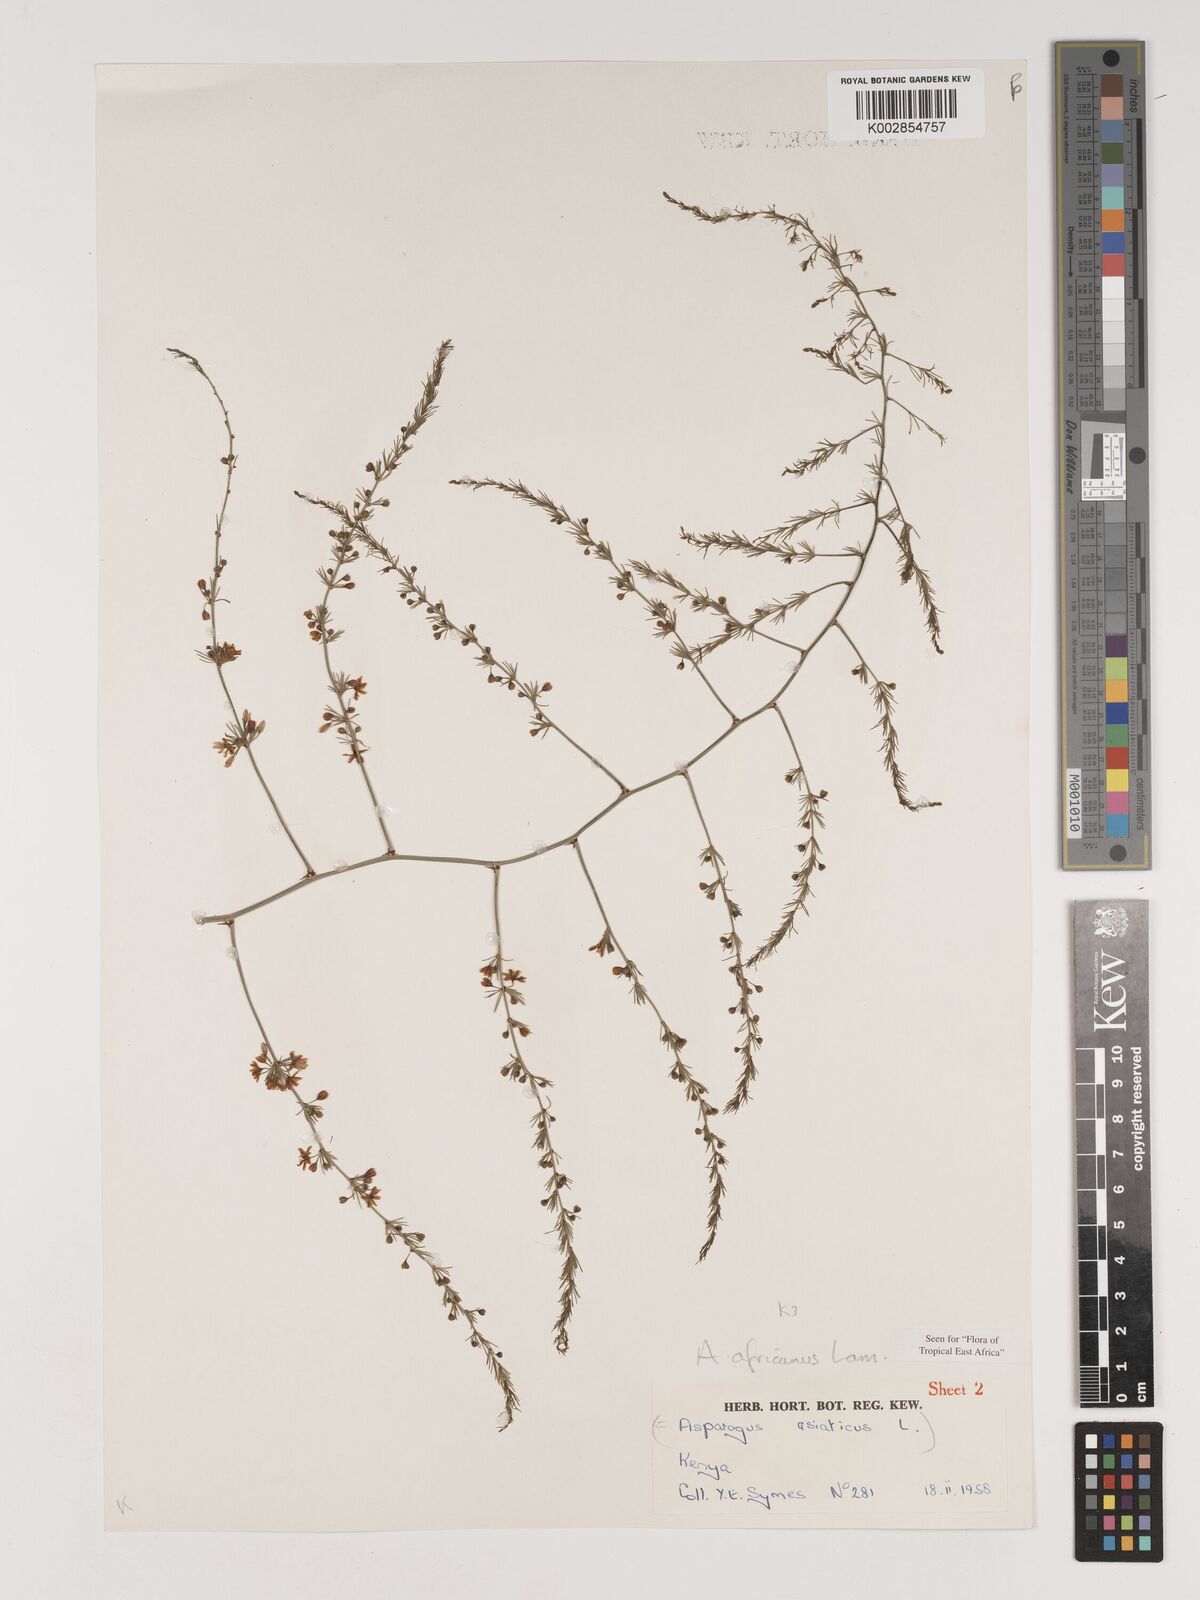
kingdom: Plantae
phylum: Tracheophyta
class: Liliopsida
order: Asparagales
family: Asparagaceae
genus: Asparagus
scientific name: Asparagus africanus
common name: Asparagus-fern
